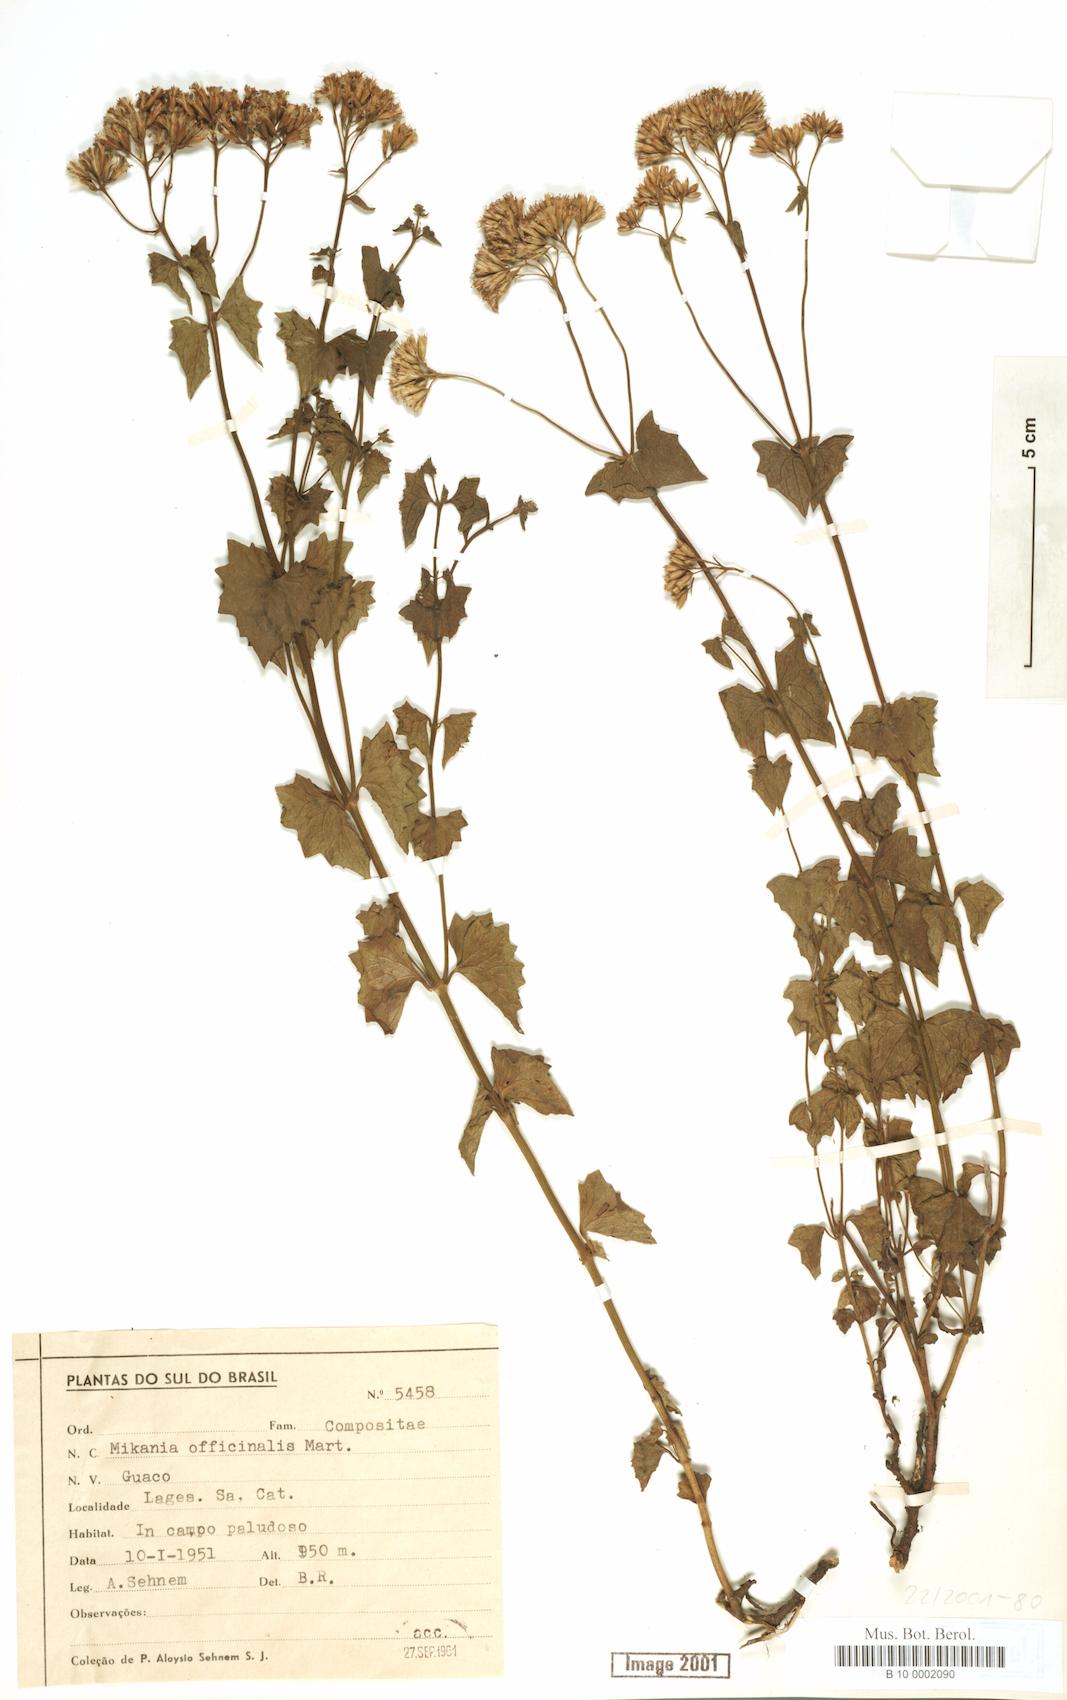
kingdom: Plantae
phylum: Tracheophyta
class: Magnoliopsida
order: Asterales
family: Asteraceae
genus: Mikania
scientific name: Mikania officinalis
